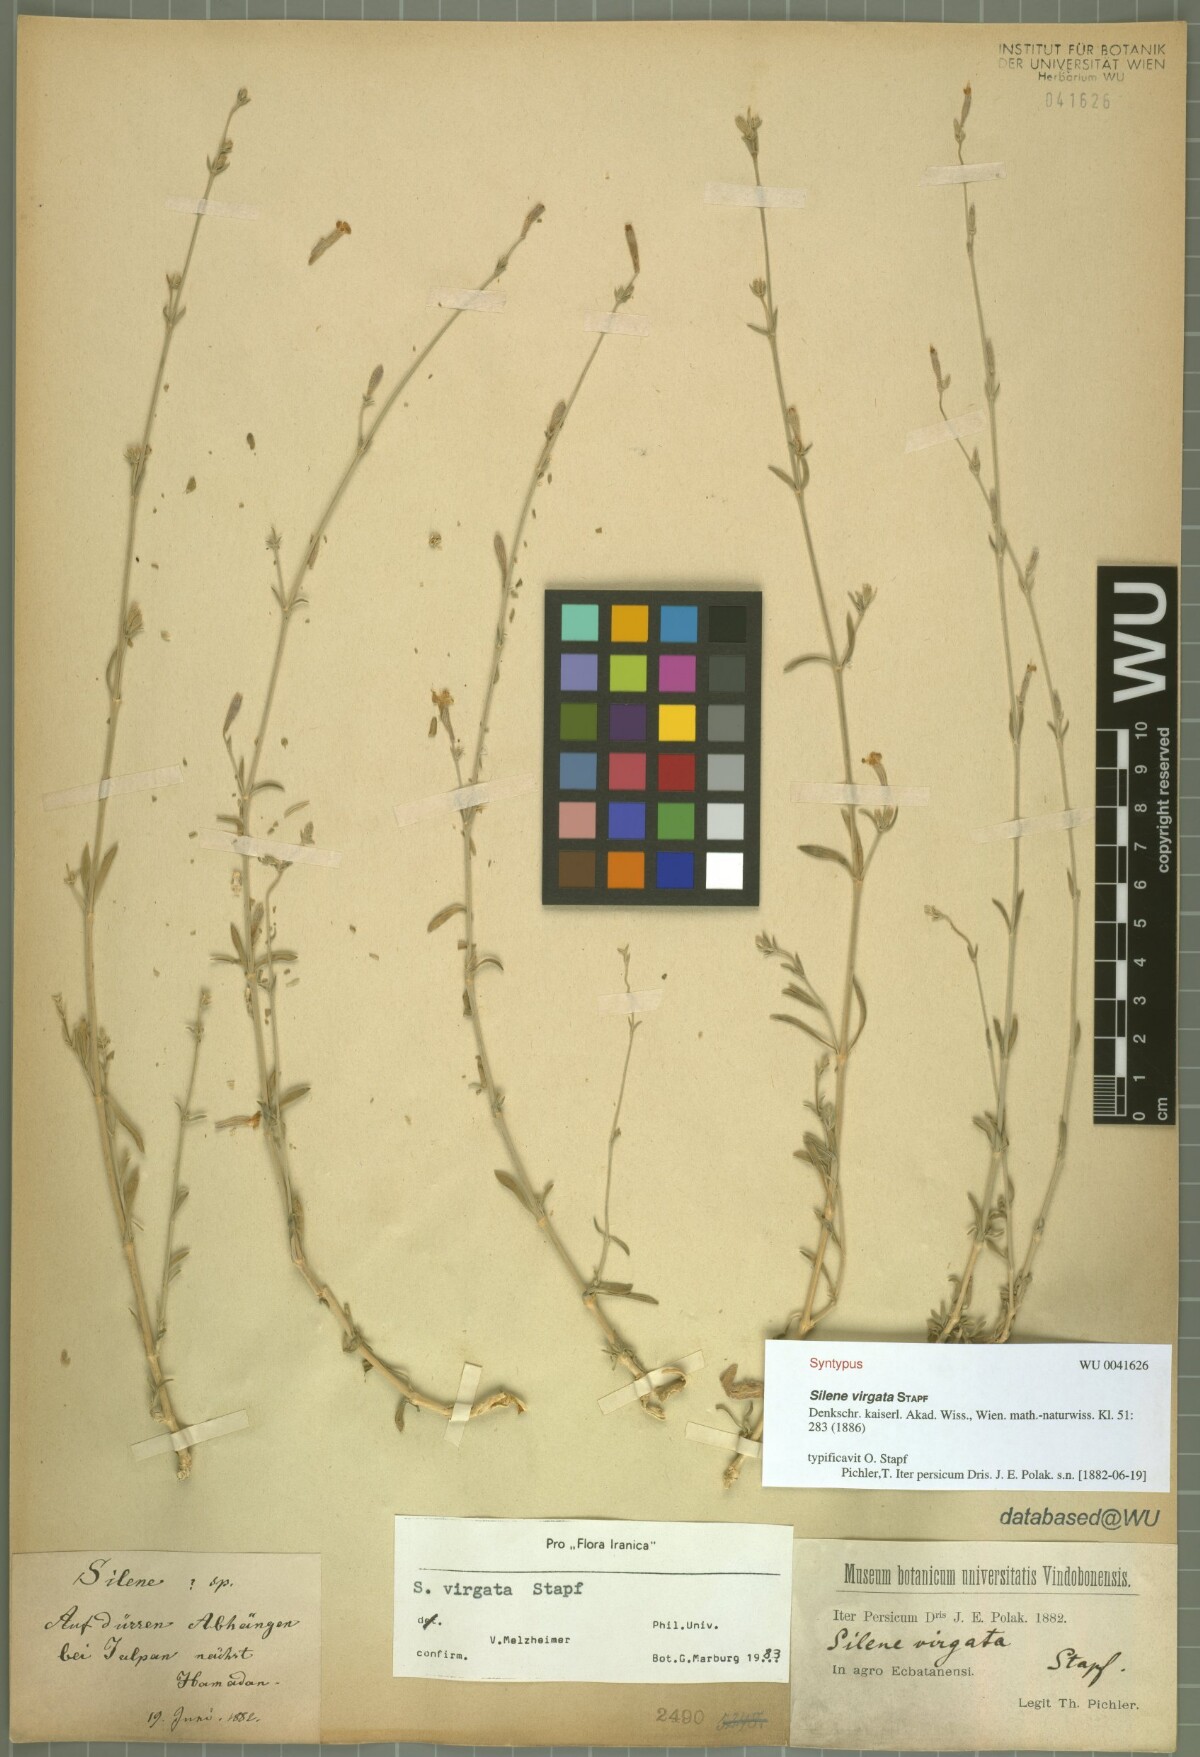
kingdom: Plantae
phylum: Tracheophyta
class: Magnoliopsida
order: Caryophyllales
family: Caryophyllaceae
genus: Silene
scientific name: Silene virgata
